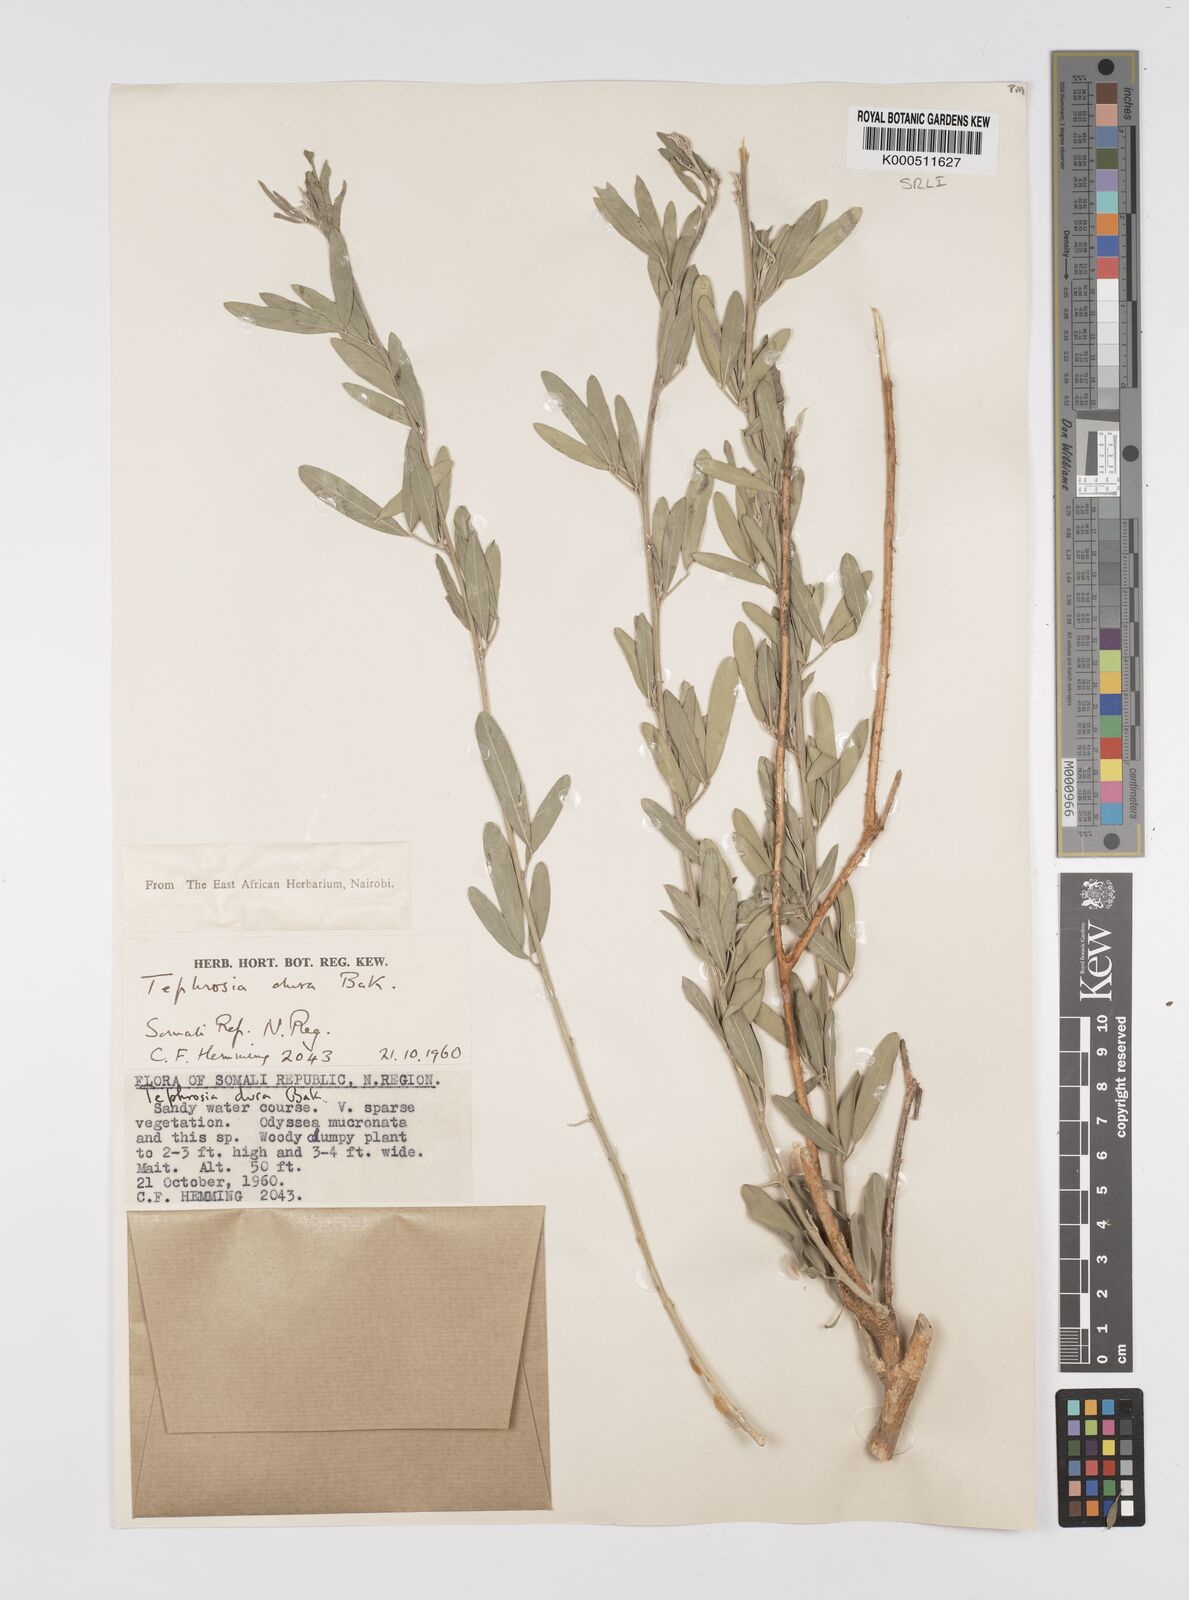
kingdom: Plantae
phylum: Tracheophyta
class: Magnoliopsida
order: Fabales
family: Fabaceae
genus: Tephrosia
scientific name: Tephrosia dura
